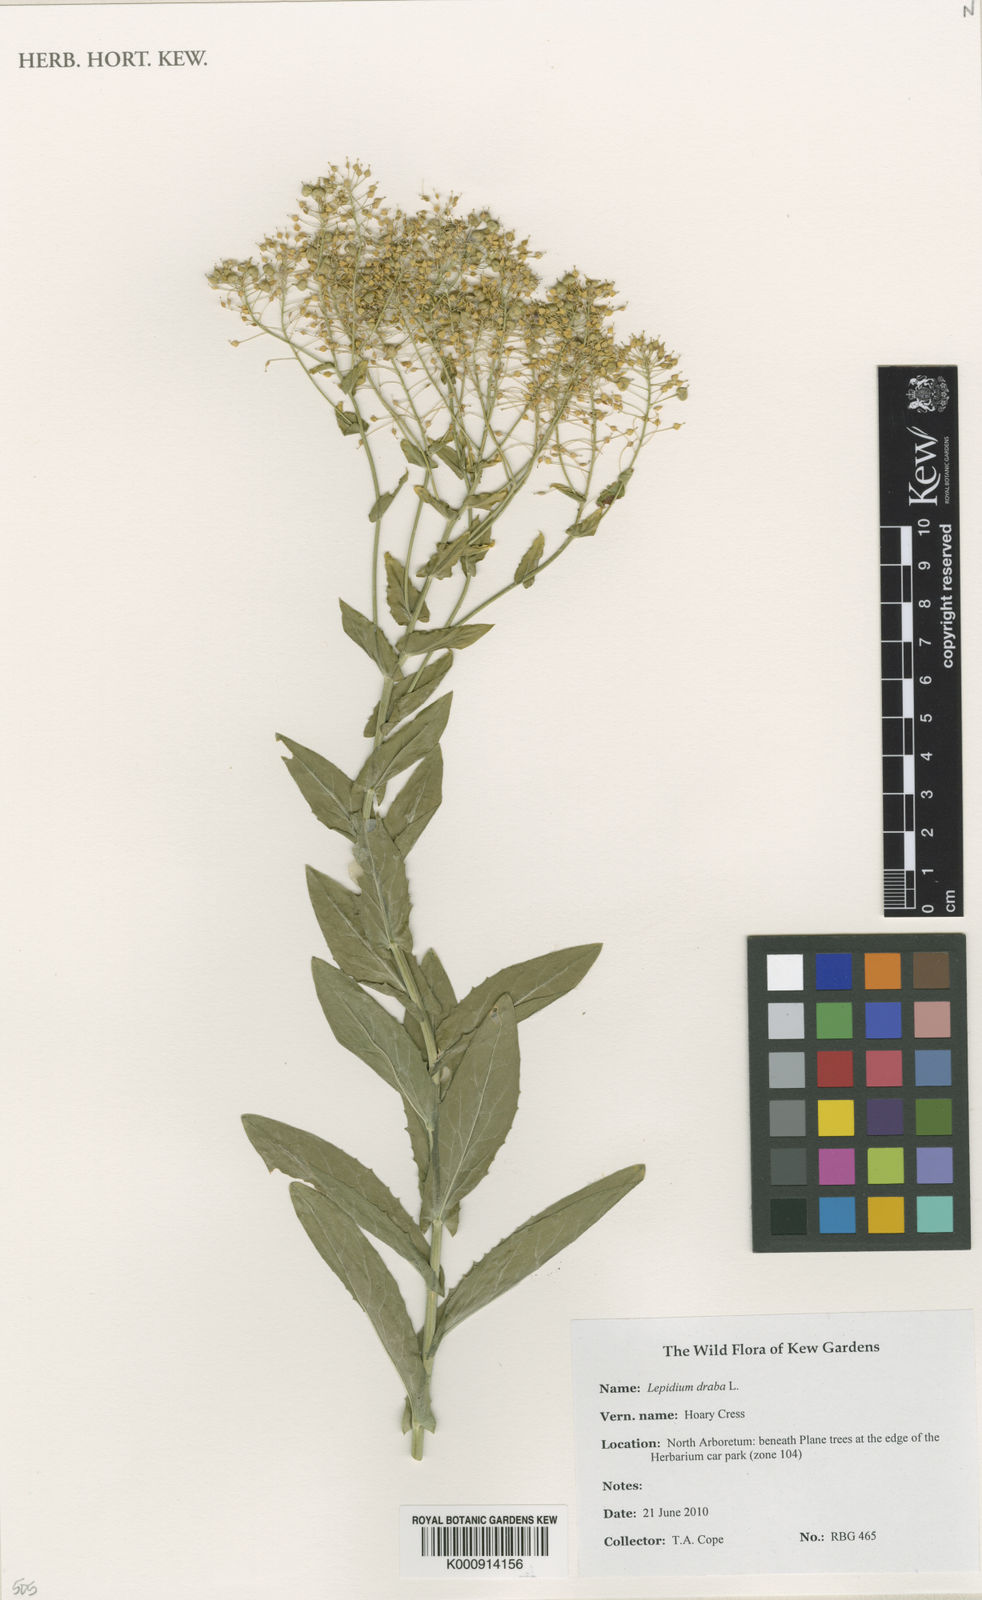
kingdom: Plantae
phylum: Tracheophyta
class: Magnoliopsida
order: Brassicales
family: Brassicaceae
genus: Lepidium
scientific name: Lepidium draba
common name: Hoary cress
